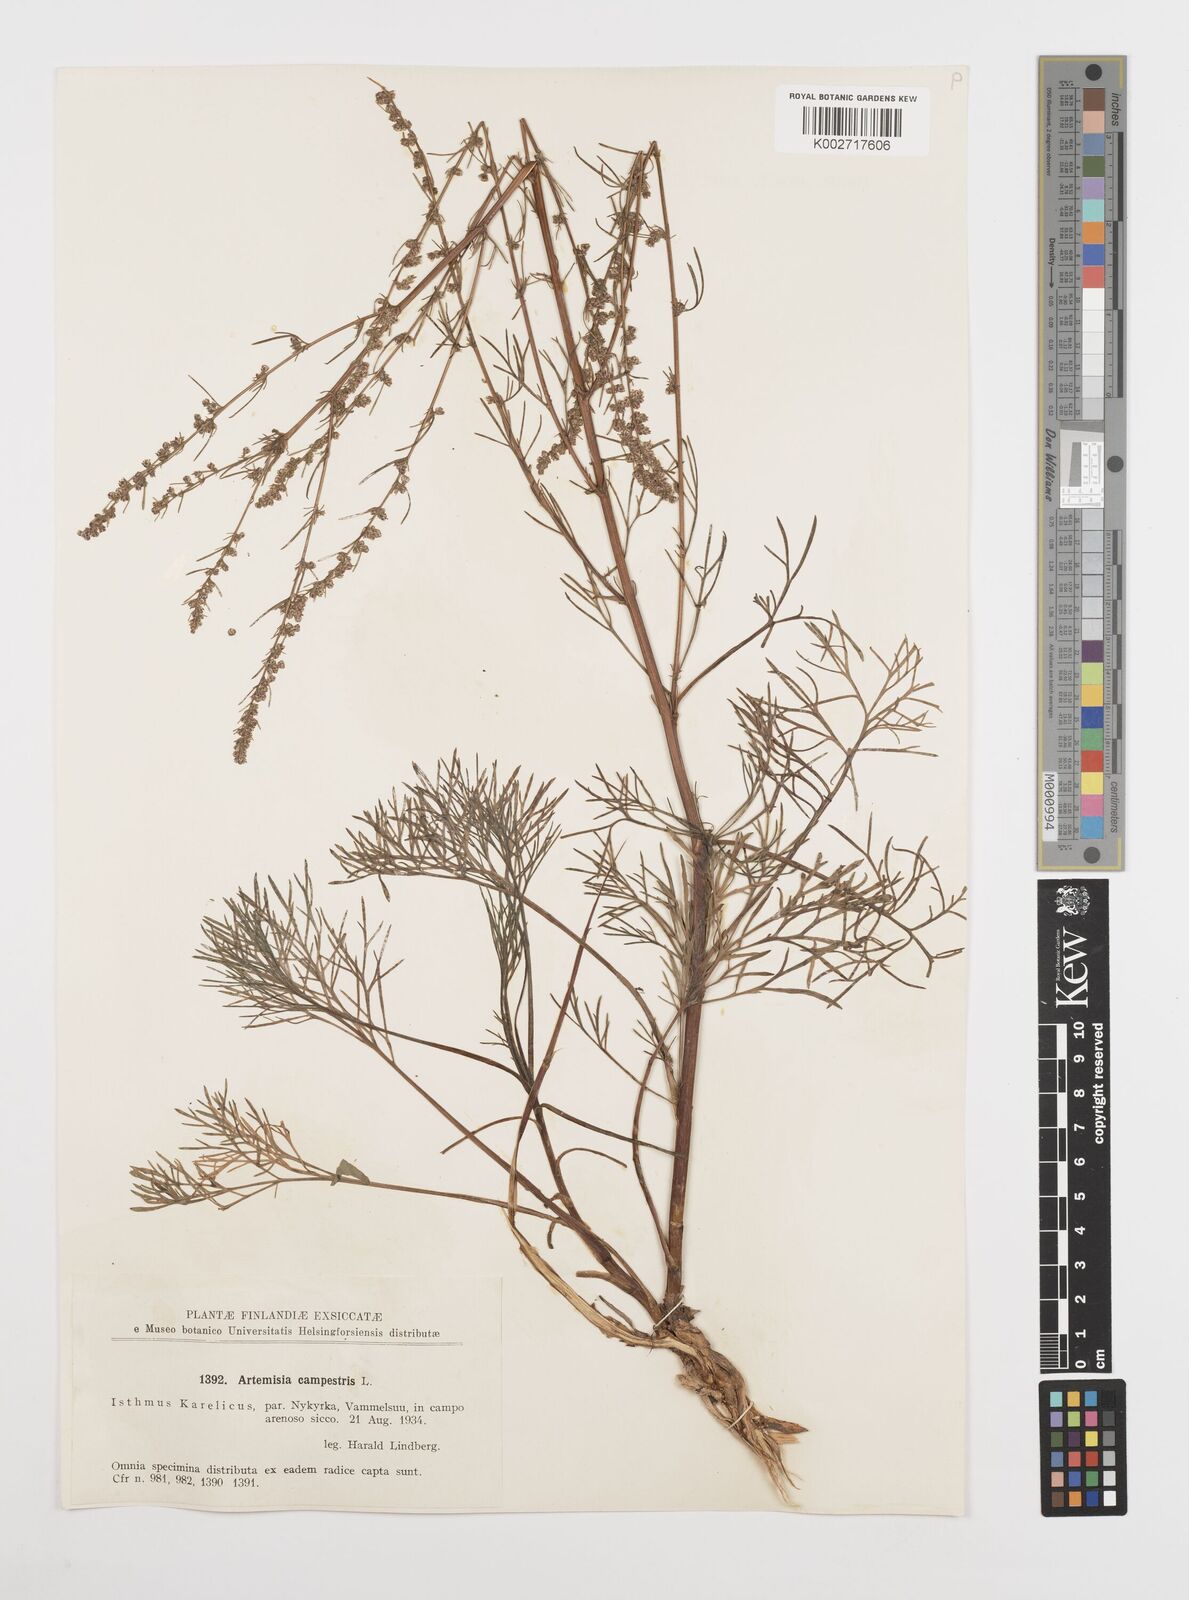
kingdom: Plantae
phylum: Tracheophyta
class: Magnoliopsida
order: Asterales
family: Asteraceae
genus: Artemisia
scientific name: Artemisia campestris
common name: Field wormwood
